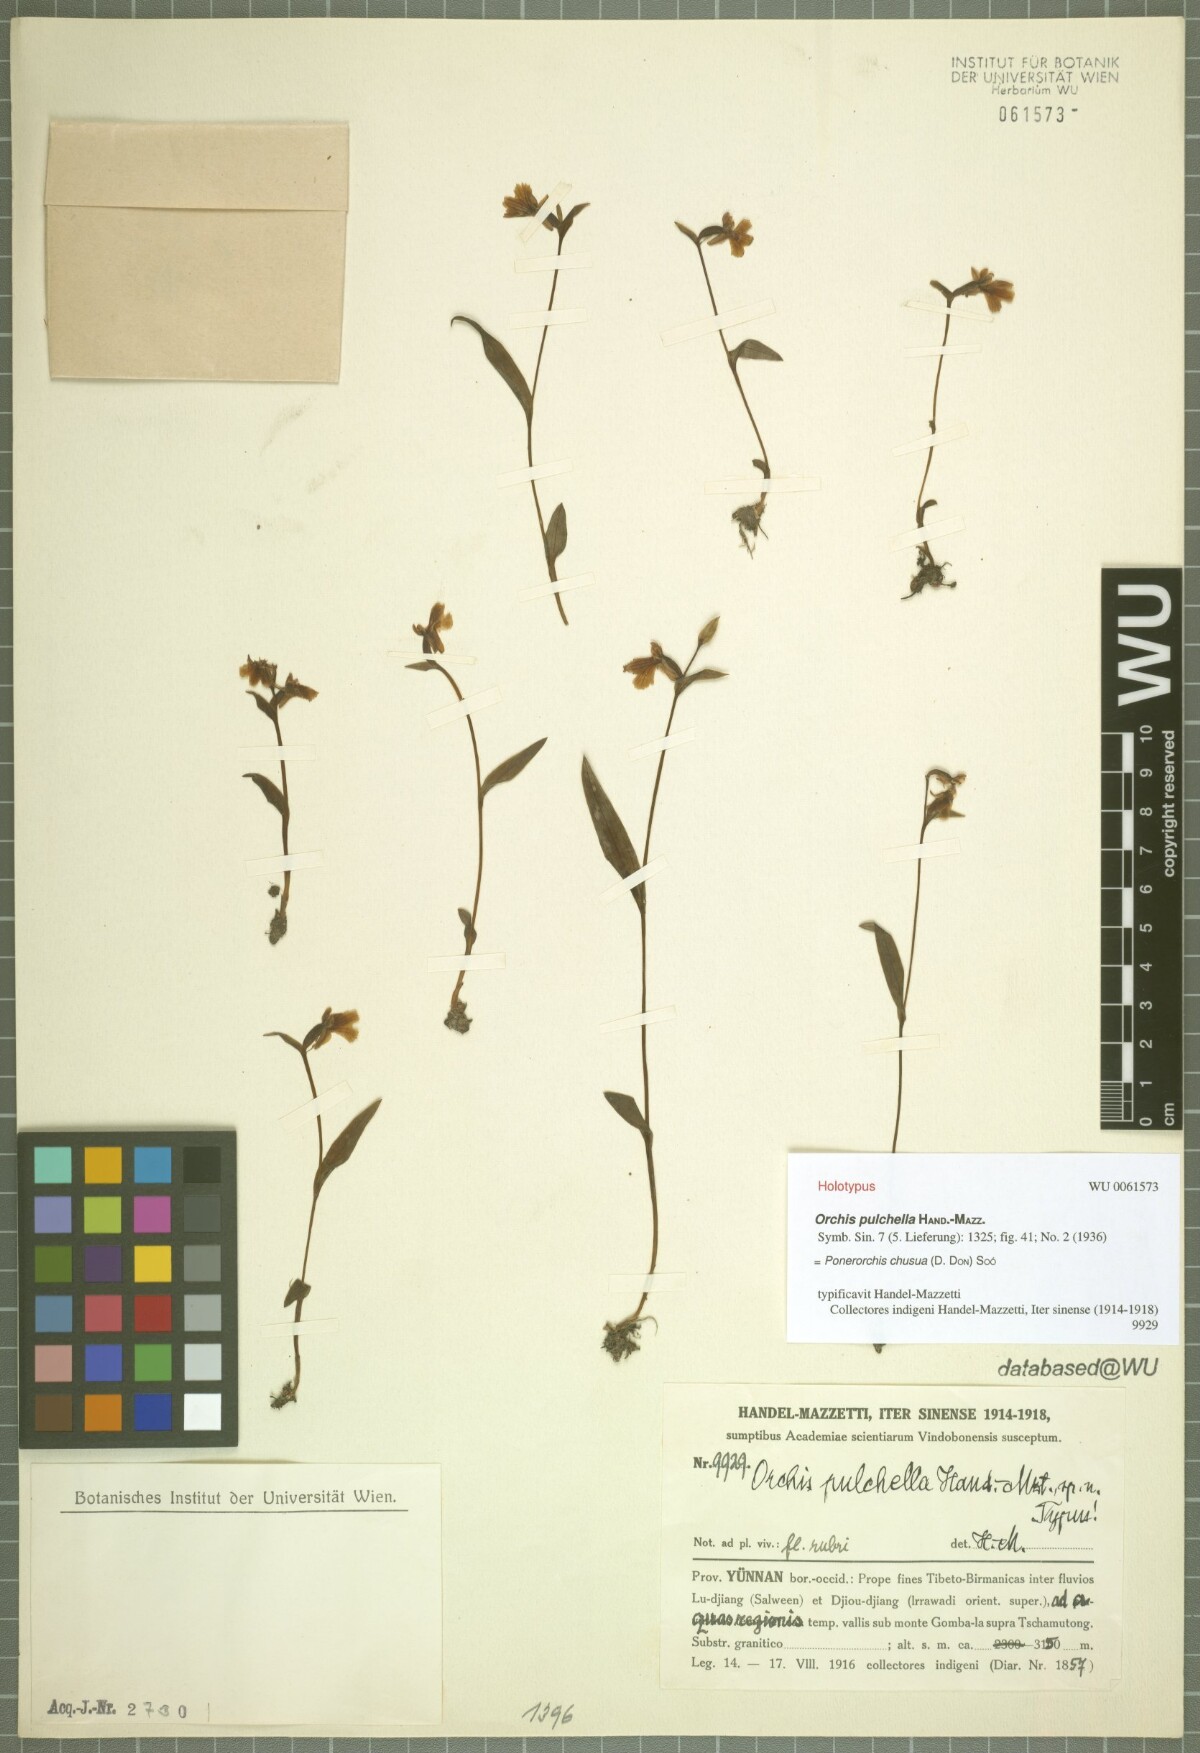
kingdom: Plantae
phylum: Tracheophyta
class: Liliopsida
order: Asparagales
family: Orchidaceae
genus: Hemipilia
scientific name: Hemipilia chusua
